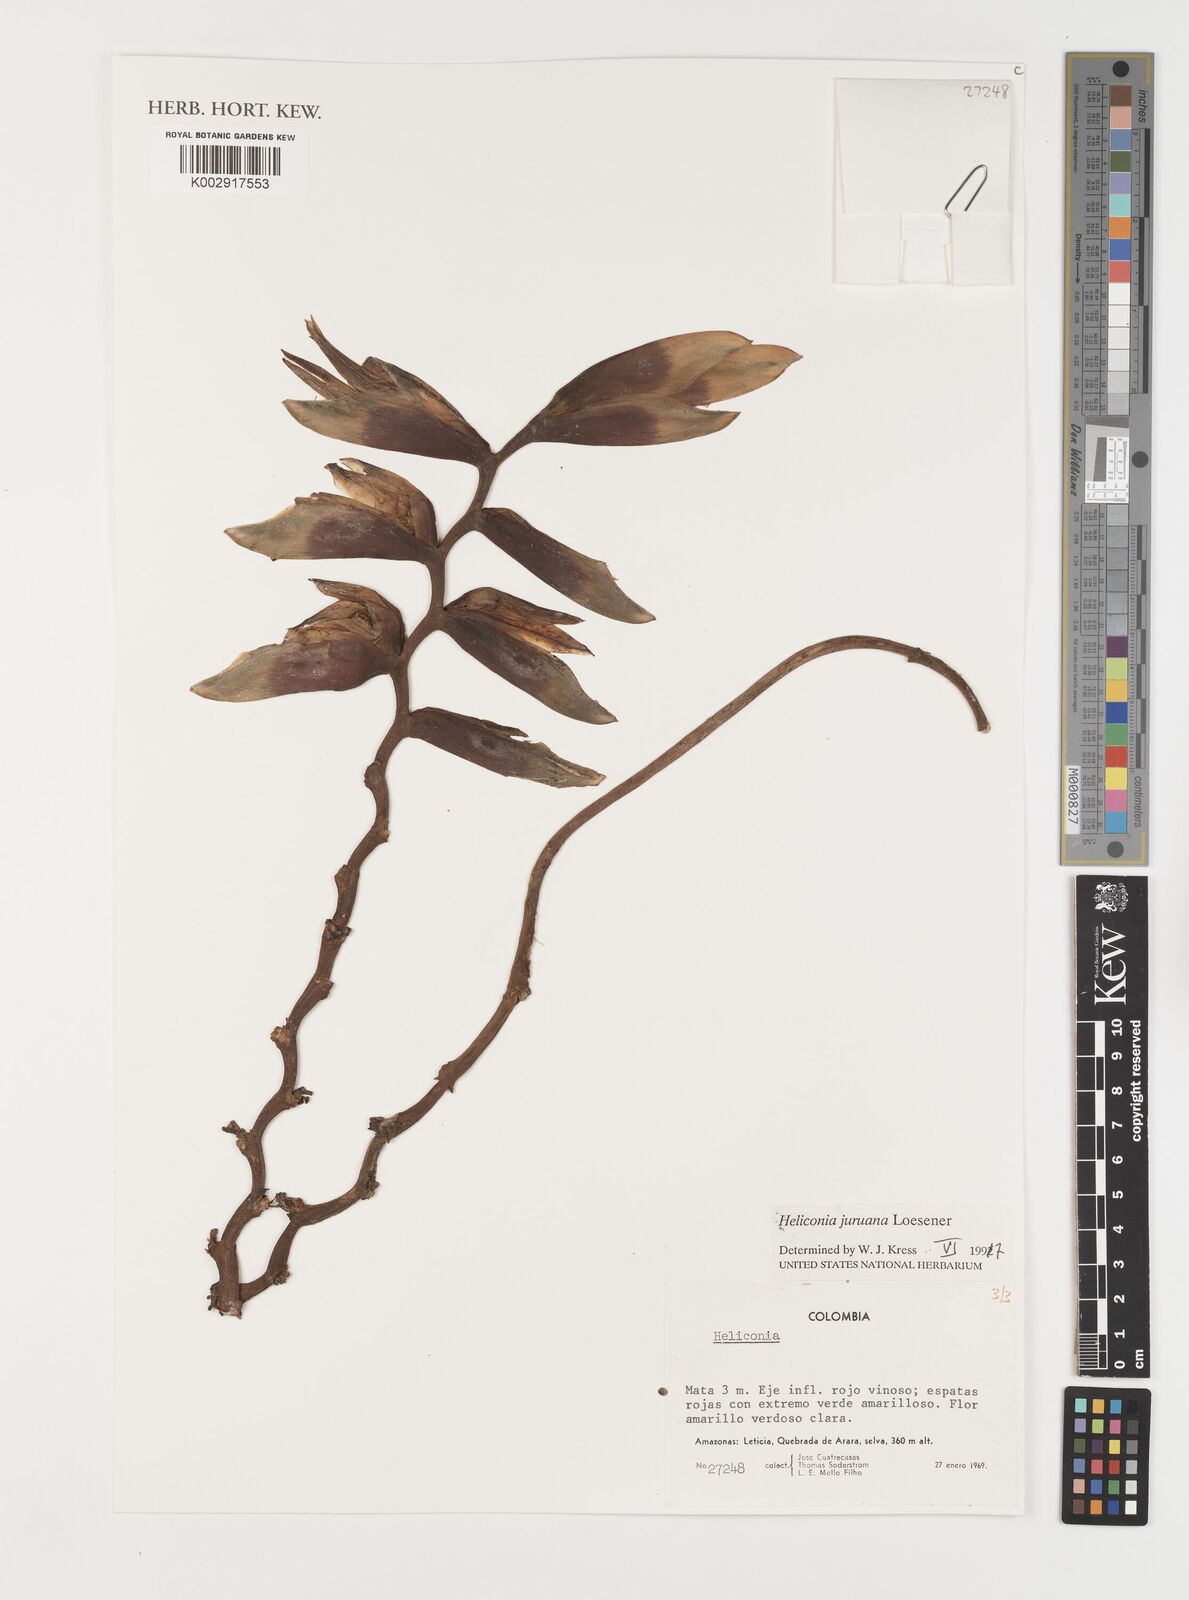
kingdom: Plantae
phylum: Tracheophyta
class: Liliopsida
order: Zingiberales
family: Heliconiaceae
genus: Heliconia
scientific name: Heliconia juruana
